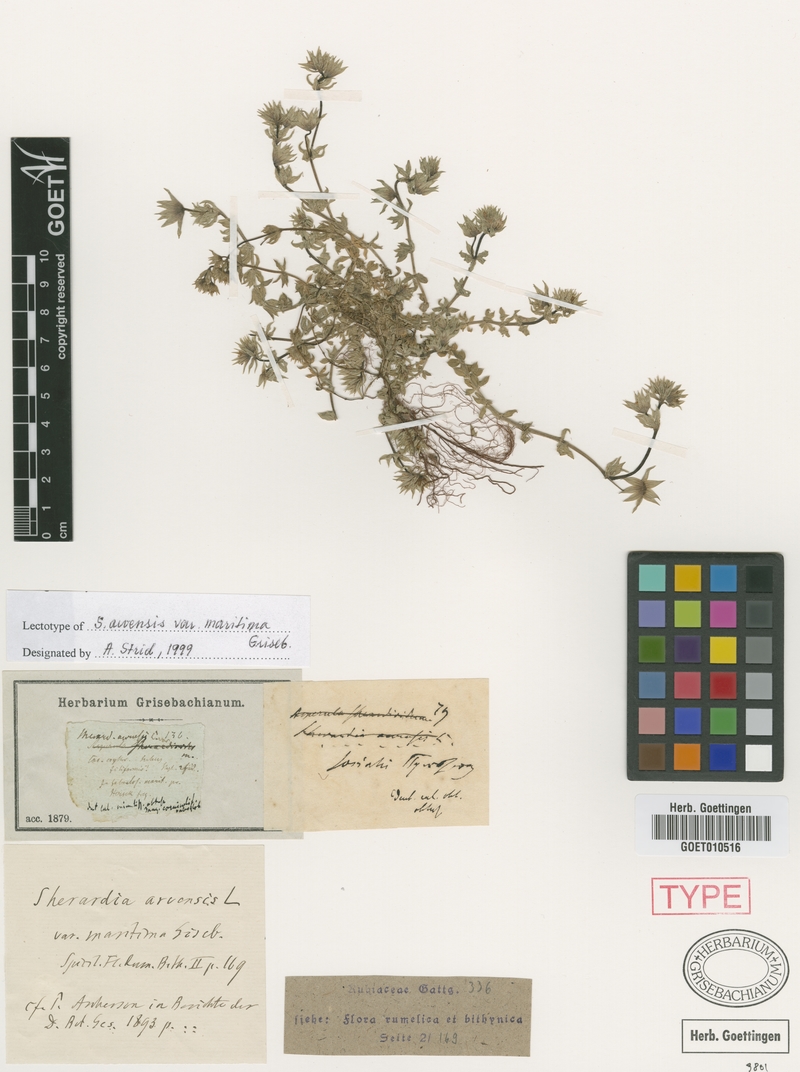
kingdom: Plantae
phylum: Tracheophyta
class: Magnoliopsida
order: Gentianales
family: Rubiaceae
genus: Sherardia
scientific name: Sherardia arvensis
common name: Field madder
